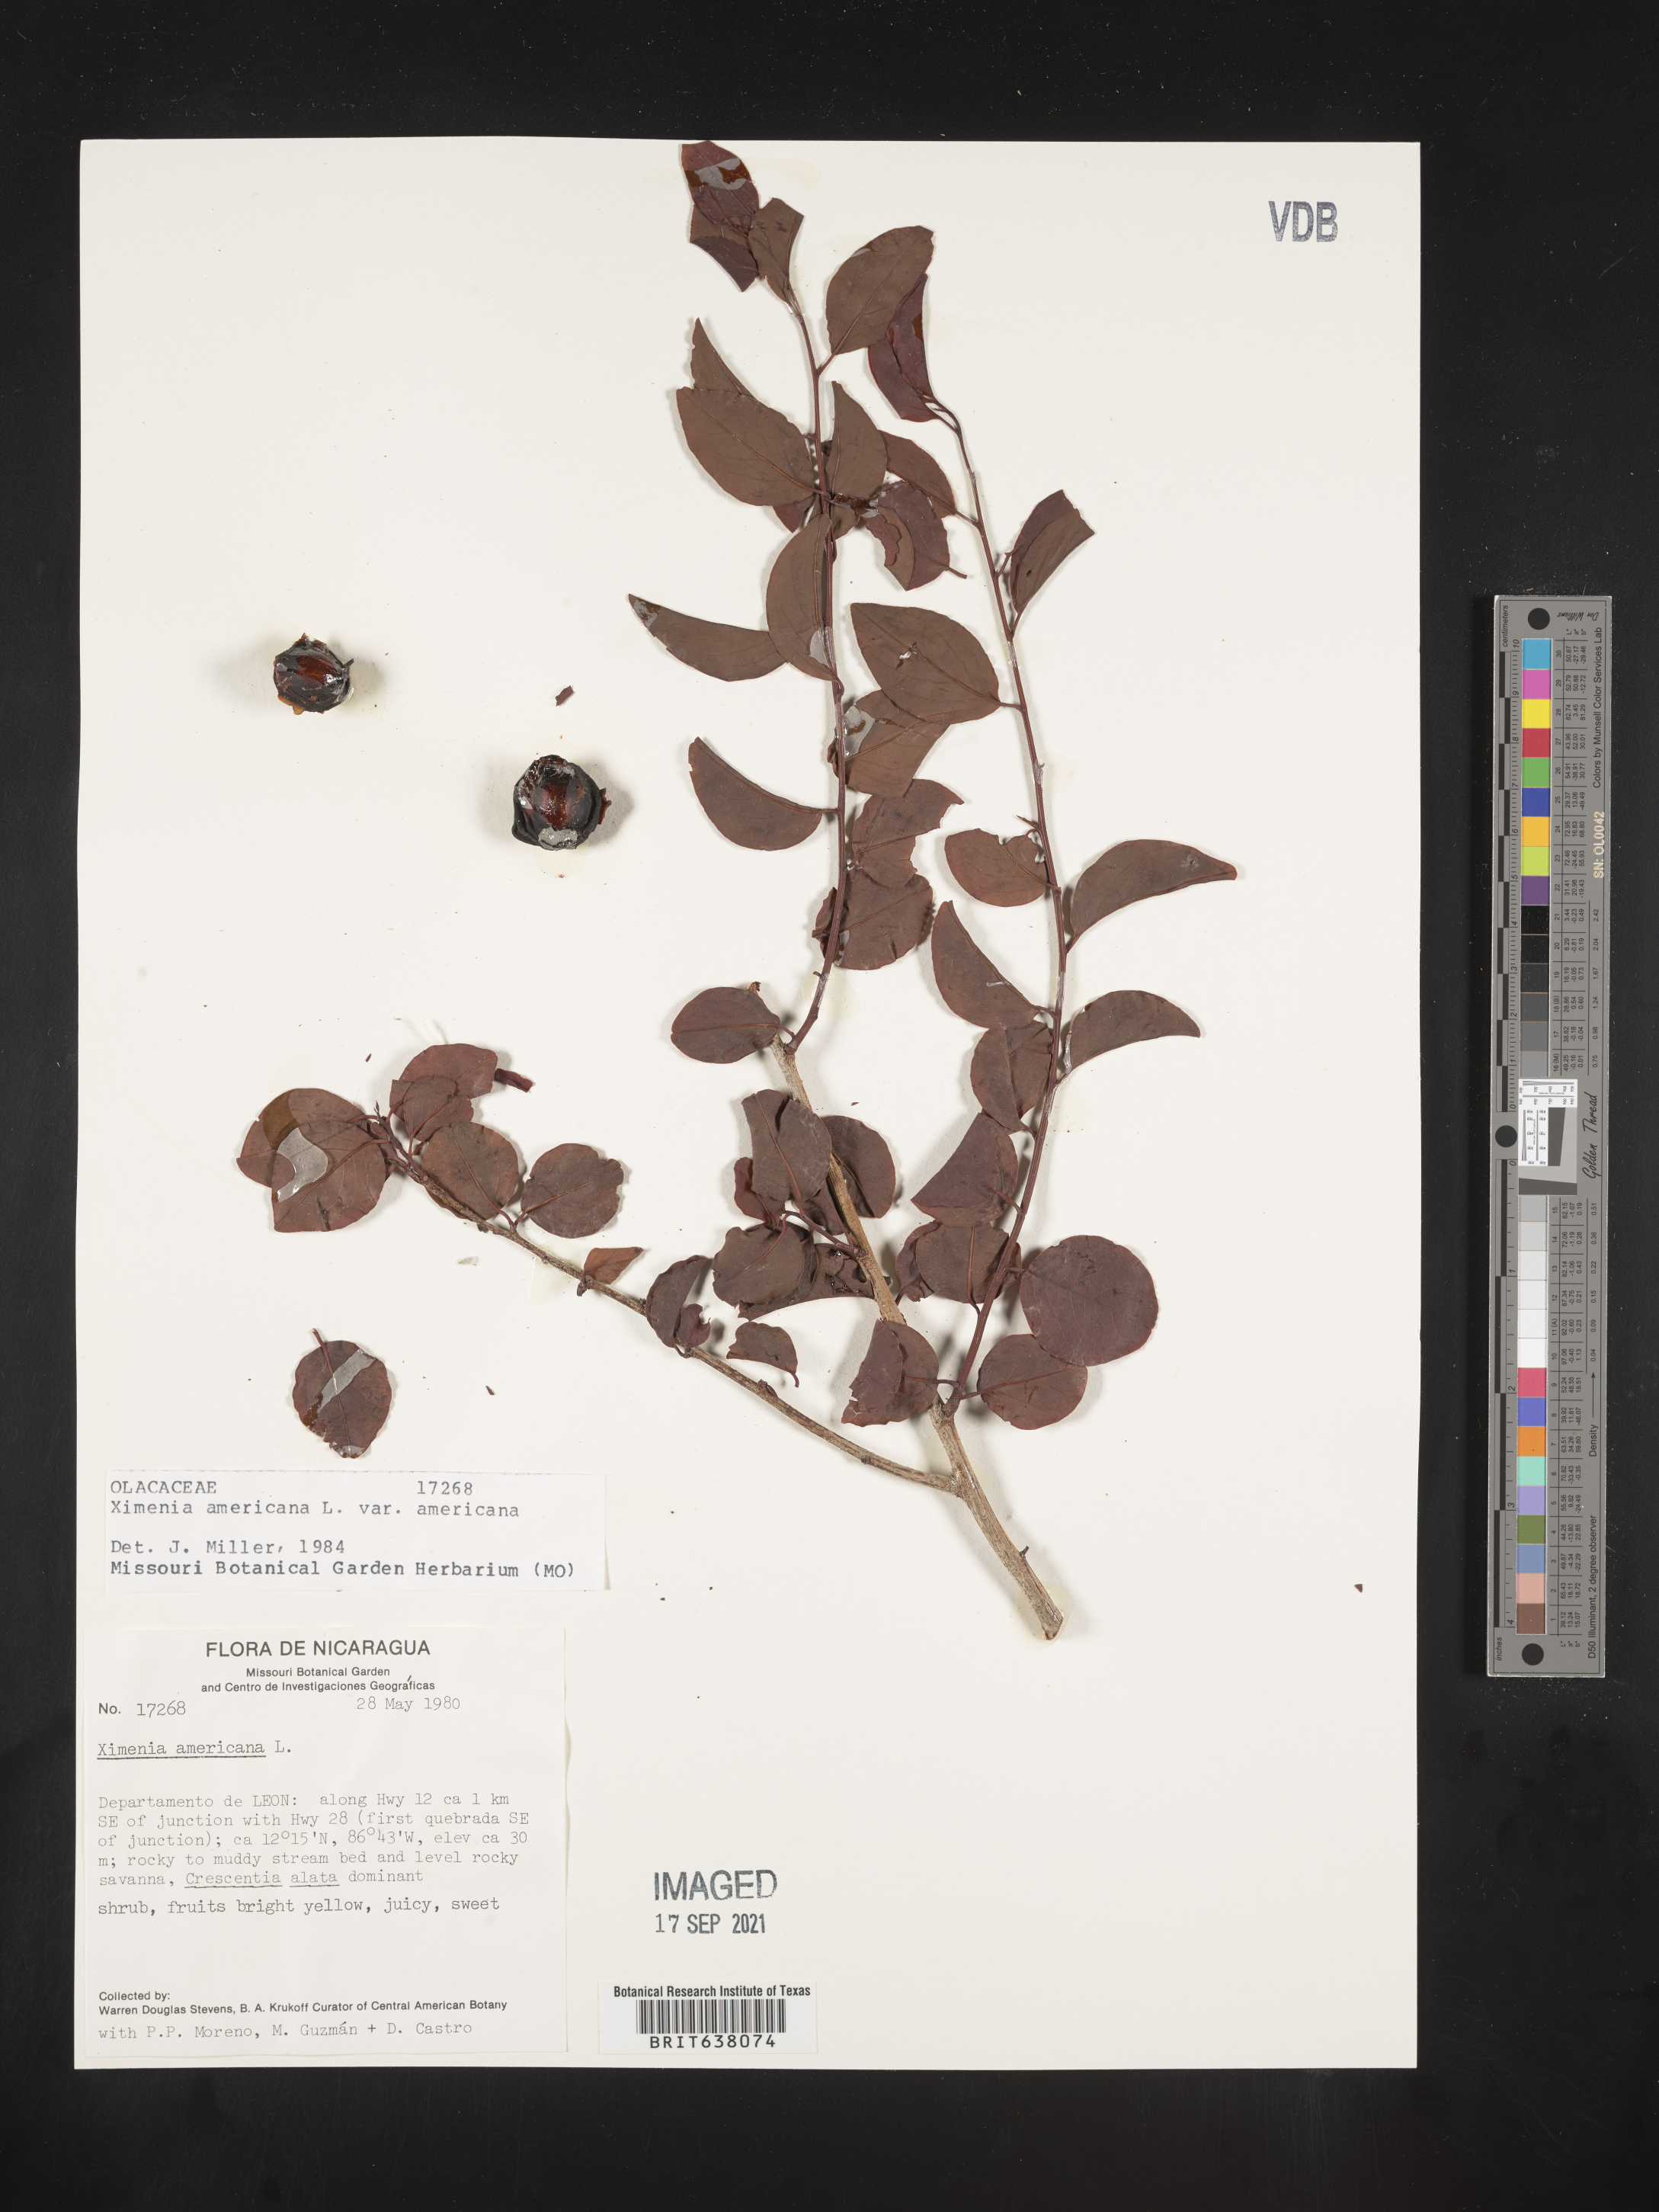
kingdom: Plantae
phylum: Tracheophyta
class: Magnoliopsida
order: Santalales
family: Ximeniaceae
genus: Ximenia
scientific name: Ximenia
